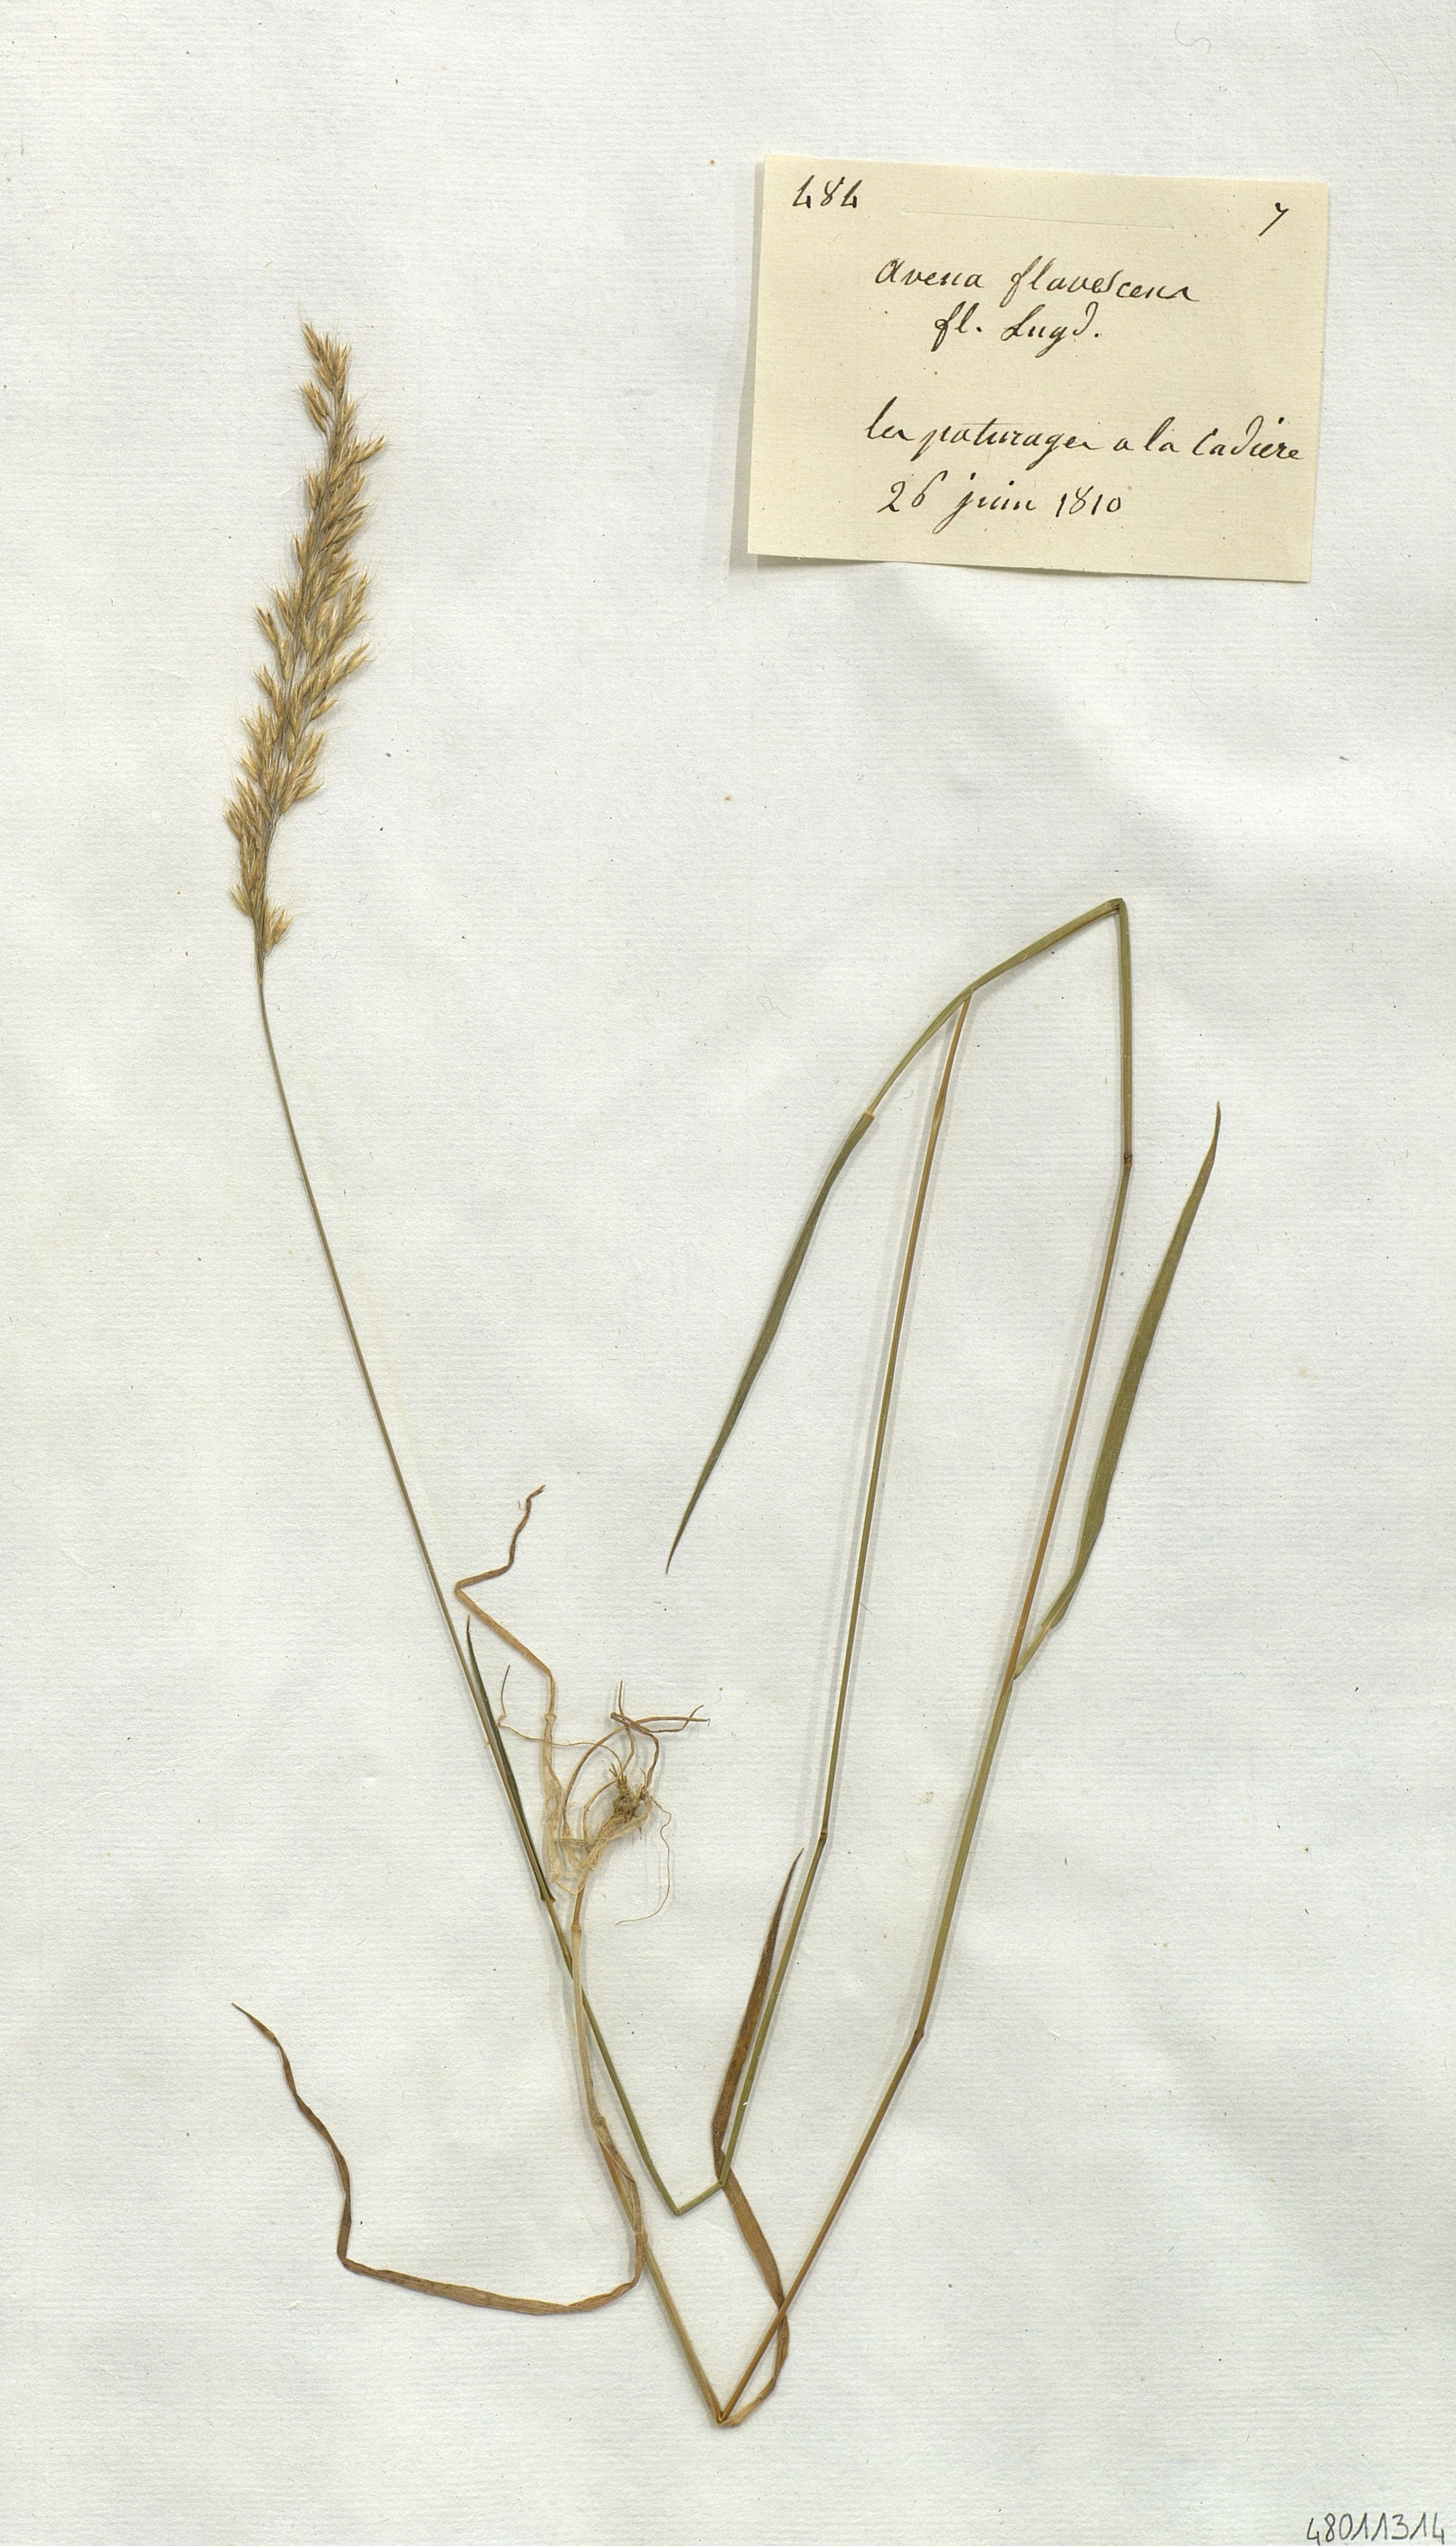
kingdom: Plantae
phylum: Tracheophyta
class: Liliopsida
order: Poales
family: Poaceae
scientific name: Poaceae
